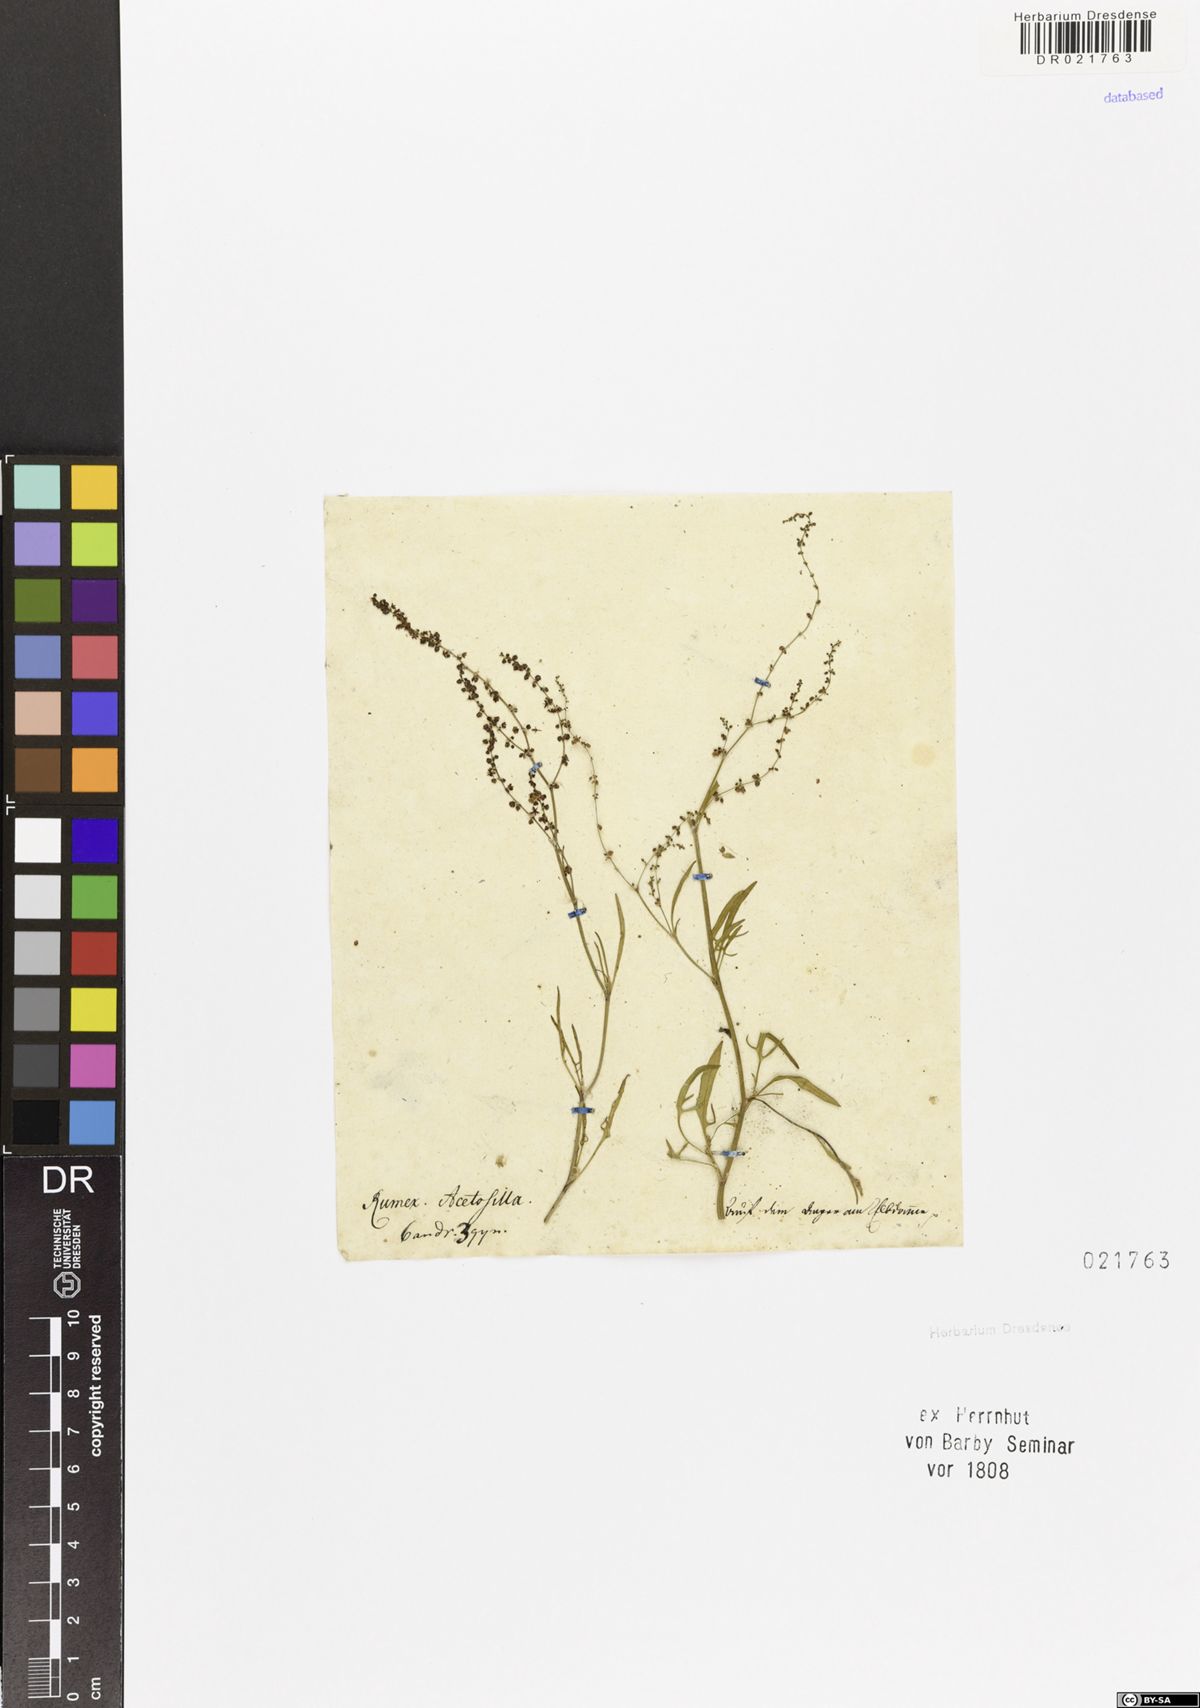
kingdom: Plantae
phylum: Tracheophyta
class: Magnoliopsida
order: Caryophyllales
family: Polygonaceae
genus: Rumex
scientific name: Rumex acetosella
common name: Common sheep sorrel
